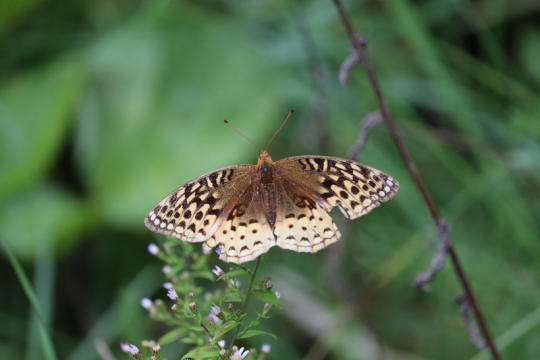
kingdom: Animalia
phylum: Arthropoda
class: Insecta
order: Lepidoptera
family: Nymphalidae
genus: Speyeria
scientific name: Speyeria cybele
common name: Great Spangled Fritillary
